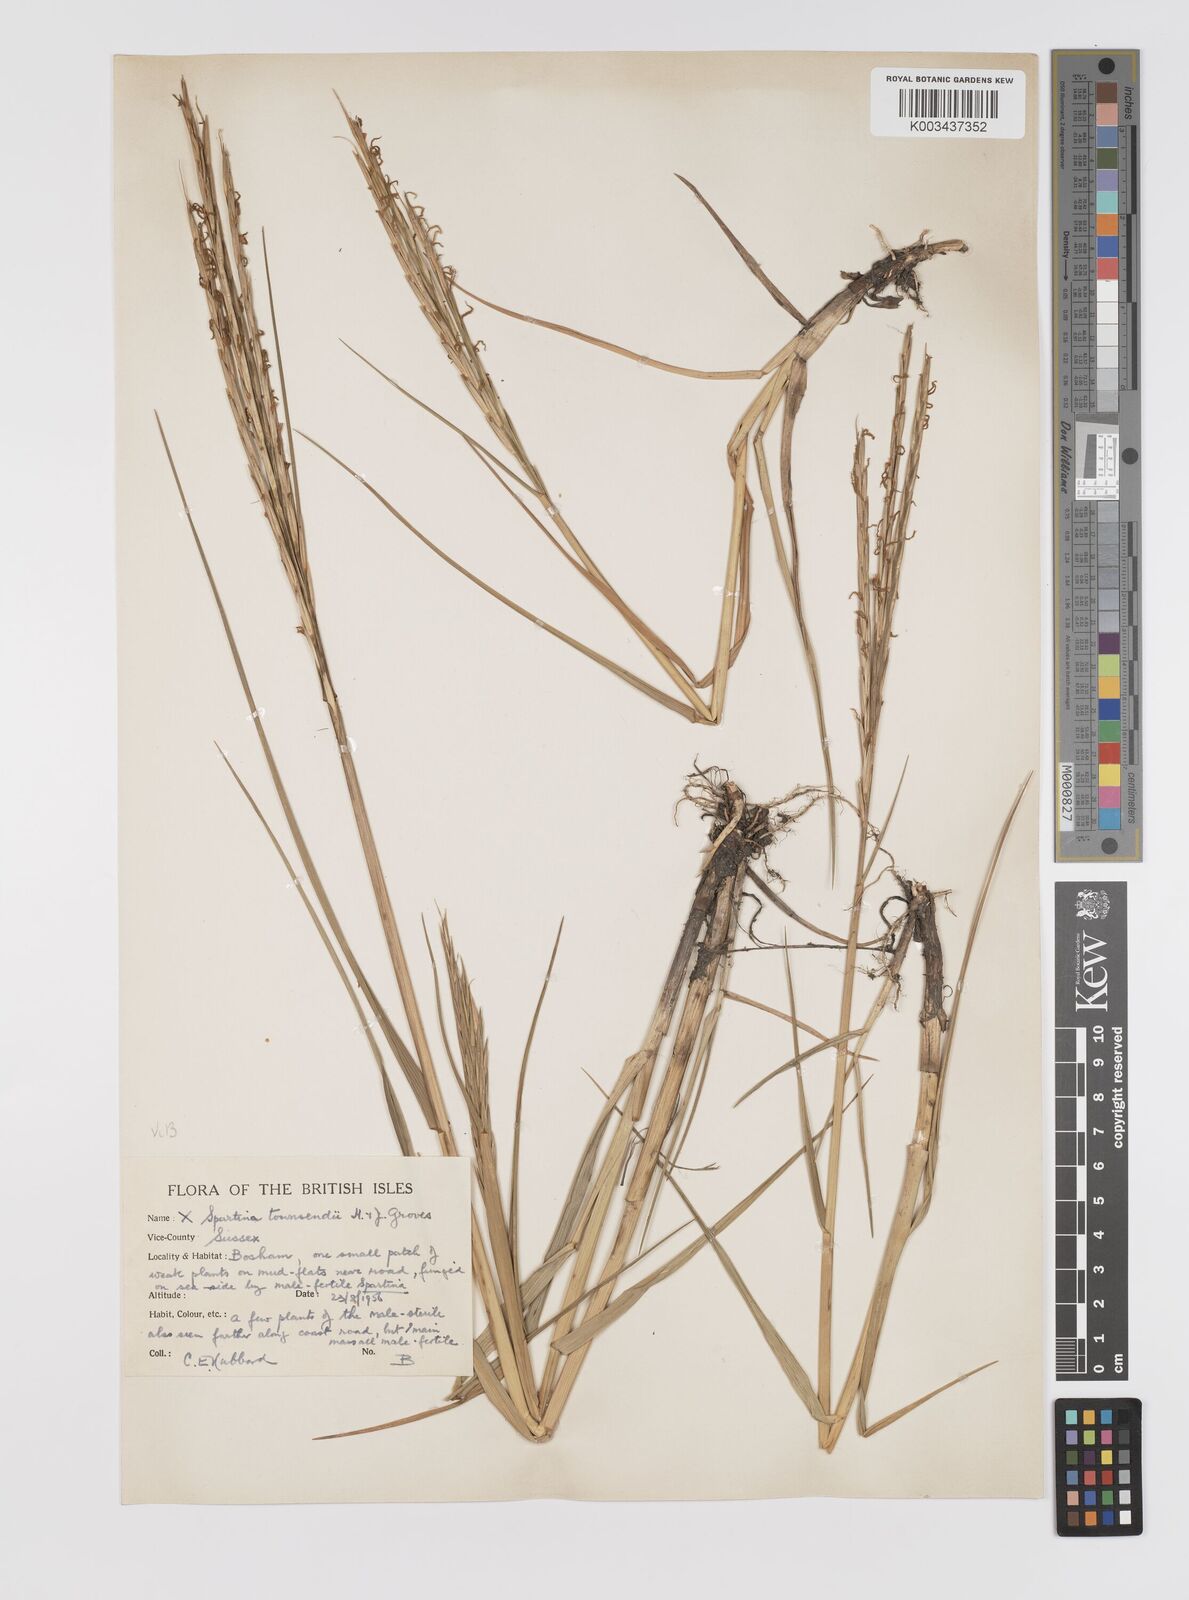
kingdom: Plantae
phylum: Tracheophyta
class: Liliopsida
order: Poales
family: Poaceae
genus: Sporobolus
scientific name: Sporobolus townsendii
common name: Townsend's cordgrass
